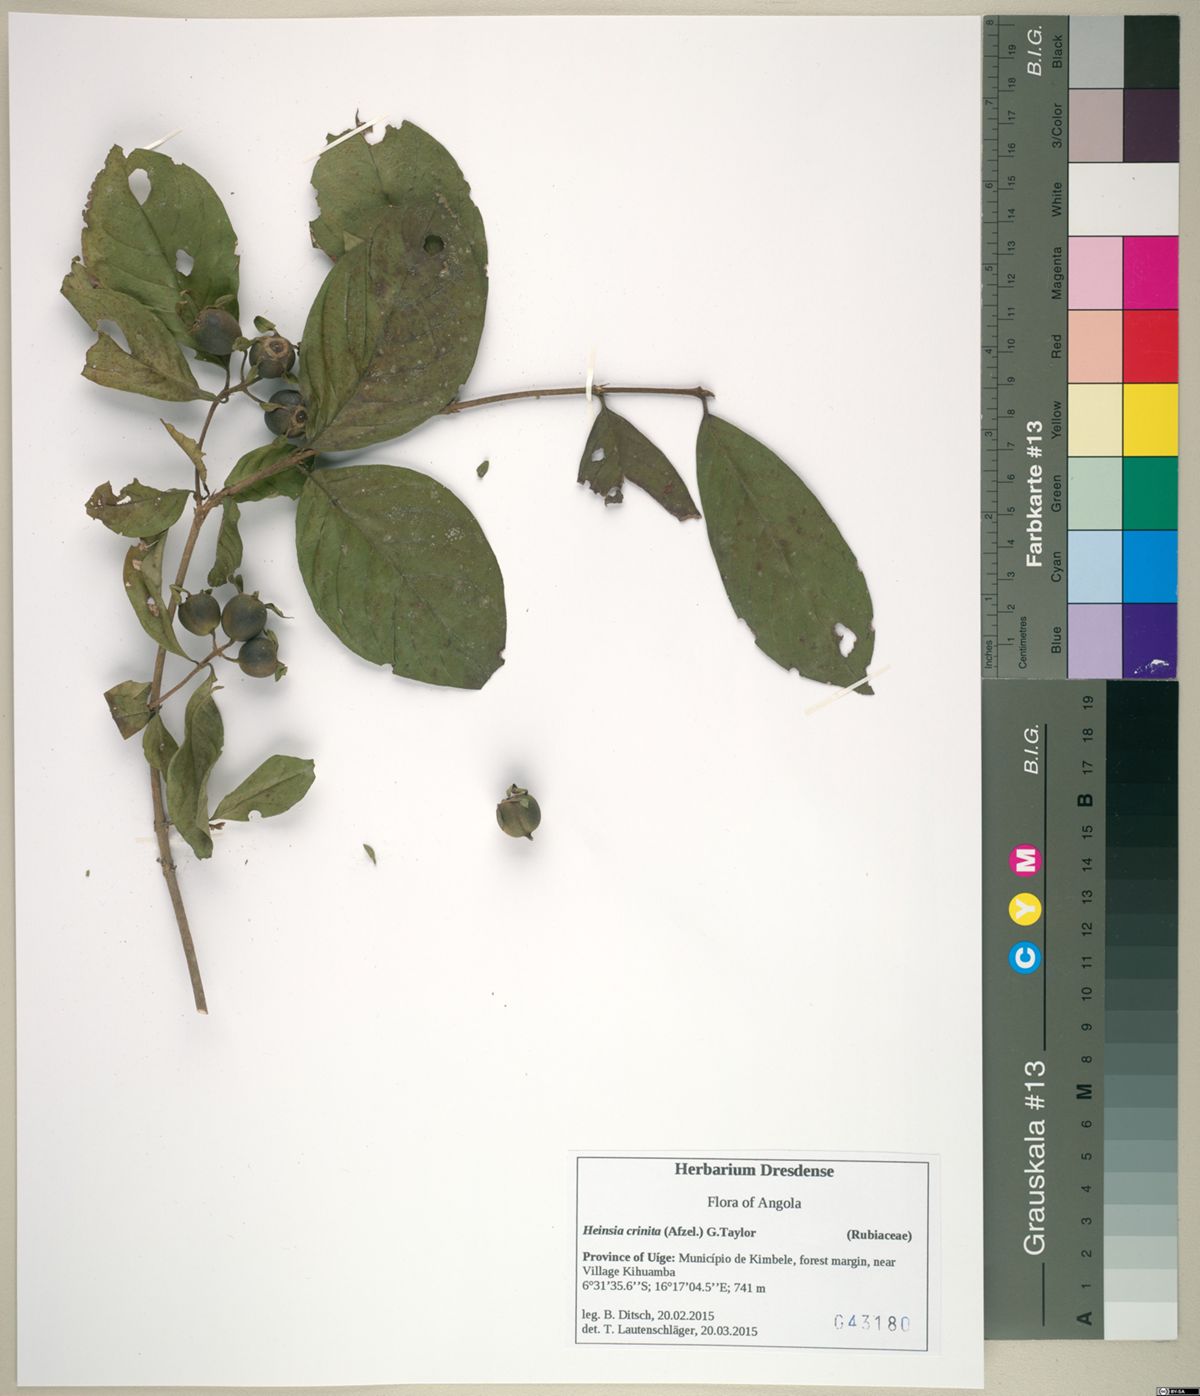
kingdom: Plantae
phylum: Tracheophyta
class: Magnoliopsida
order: Gentianales
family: Rubiaceae
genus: Heinsia
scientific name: Heinsia crinita
